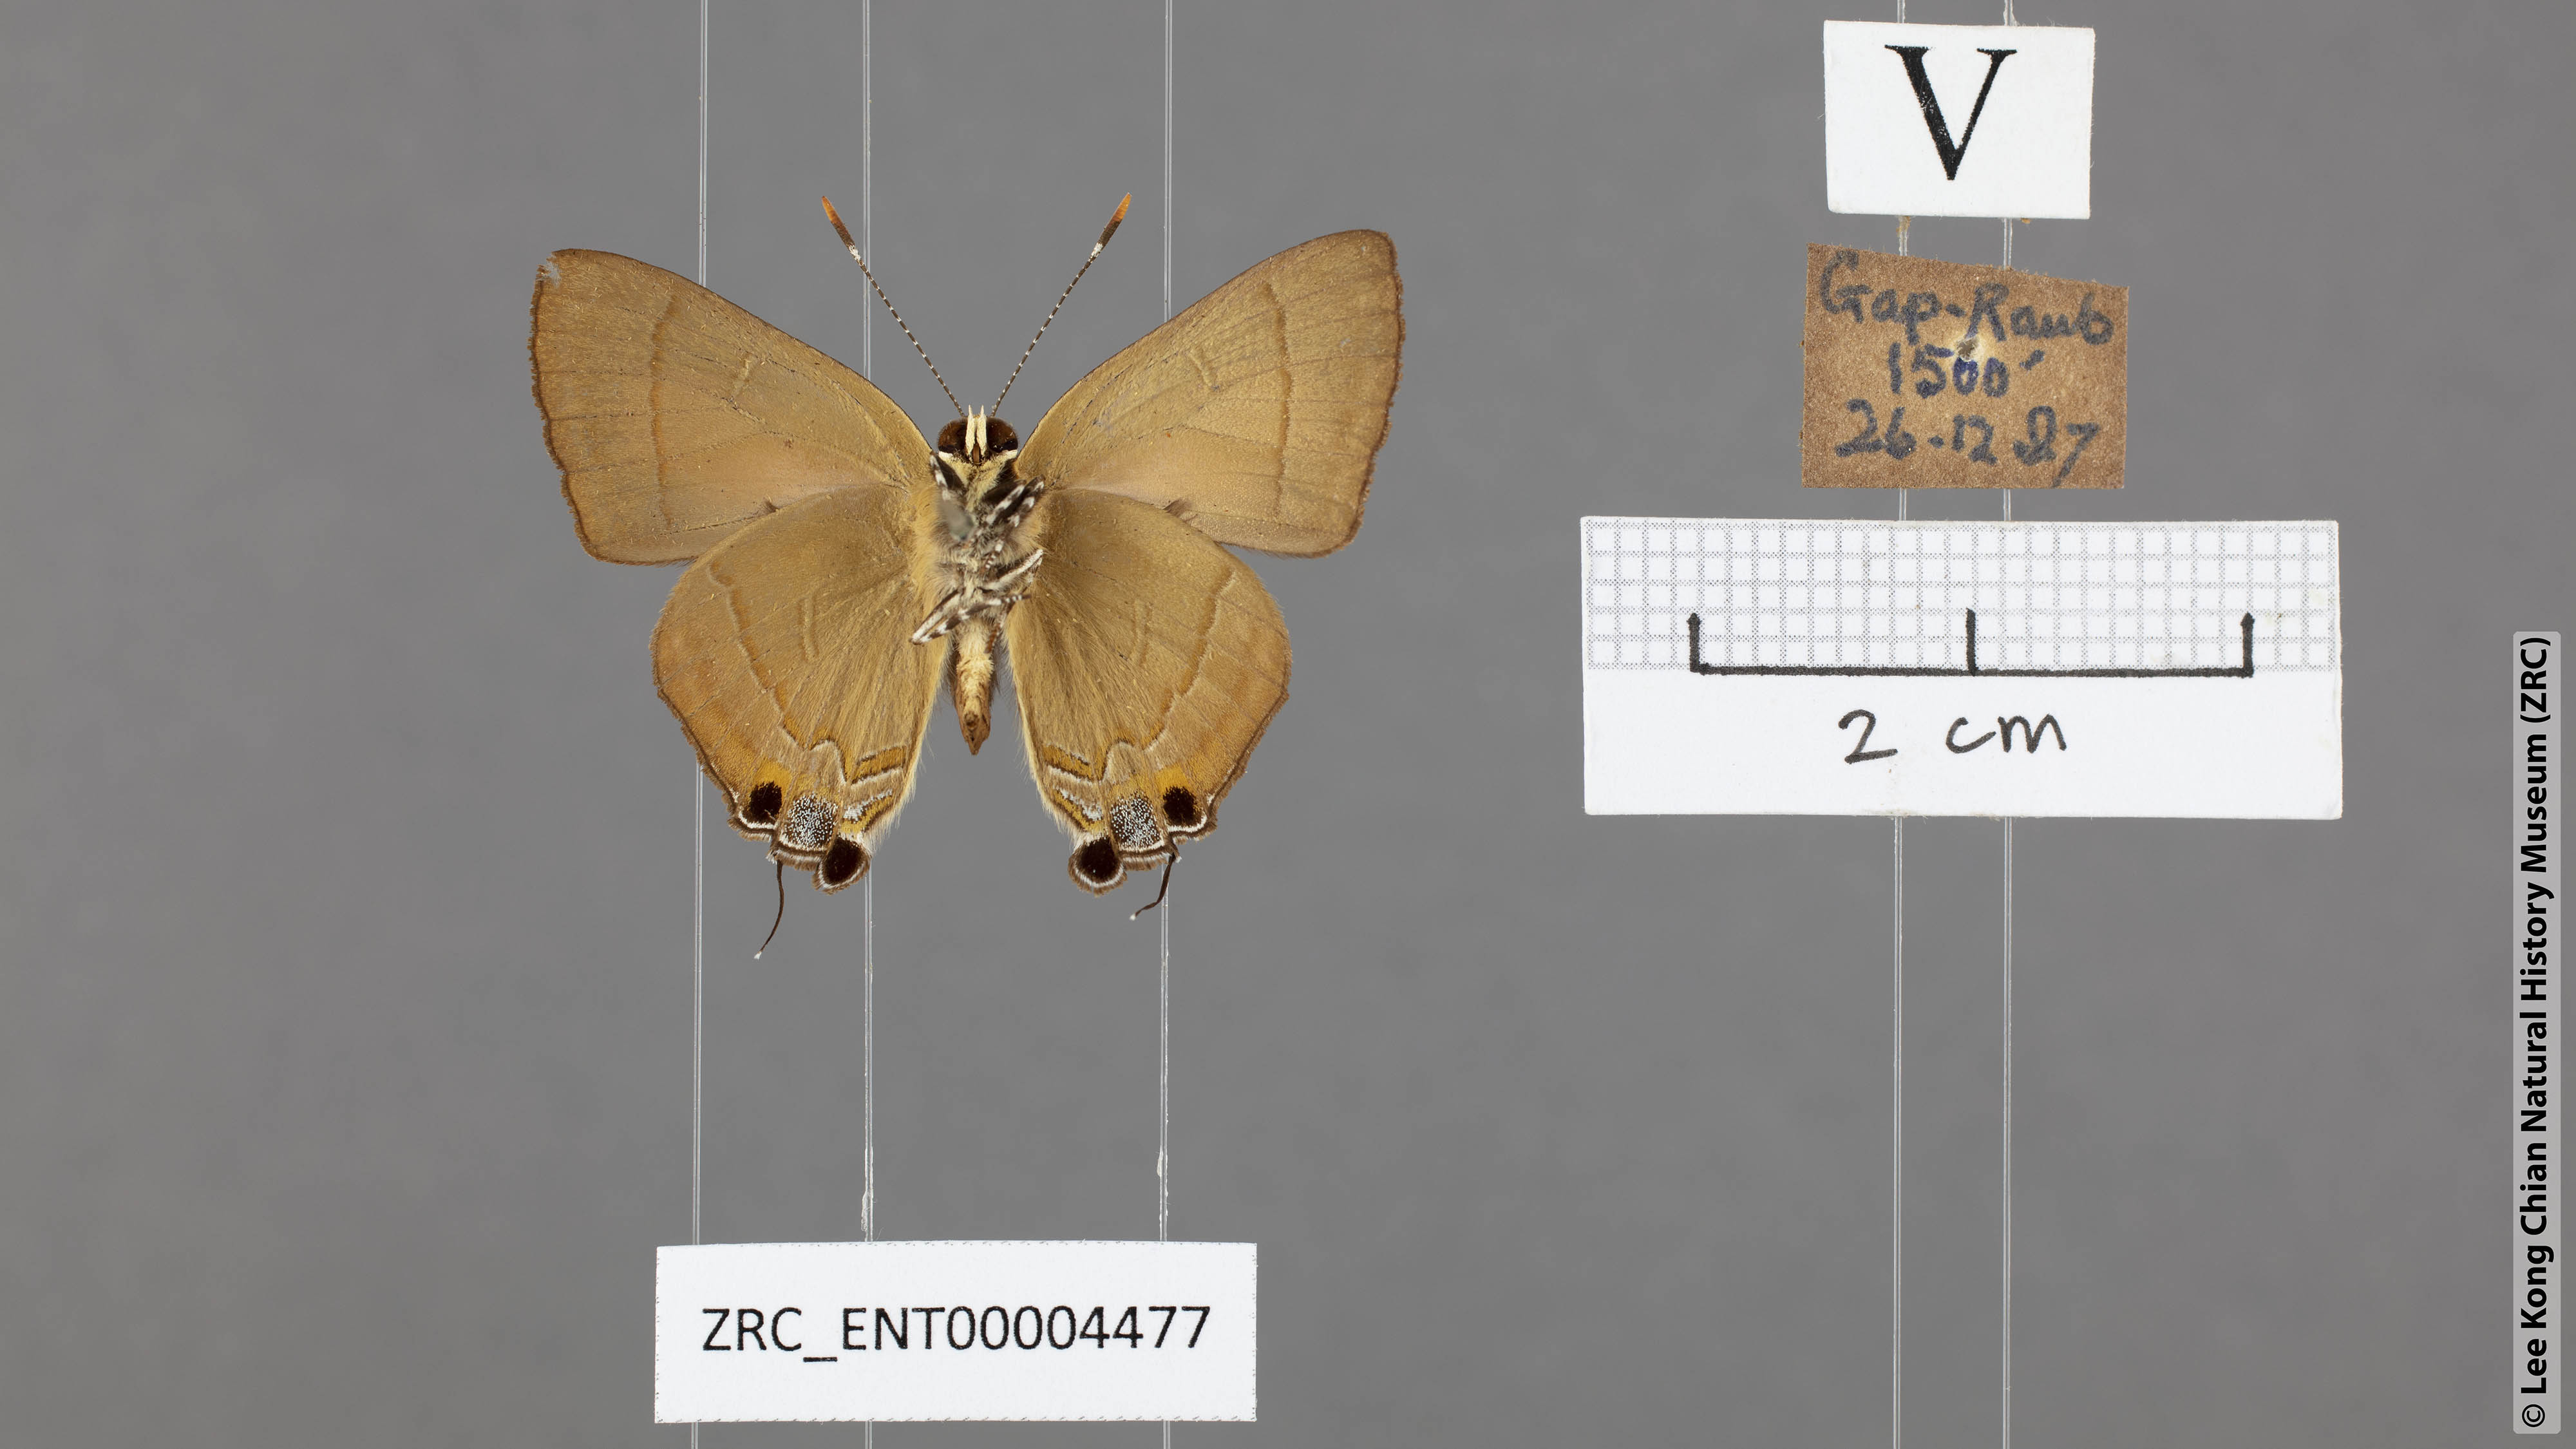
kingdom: Animalia
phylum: Arthropoda
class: Insecta
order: Lepidoptera
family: Lycaenidae
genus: Rapala
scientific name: Rapala dieneces
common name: Scarlet flash
